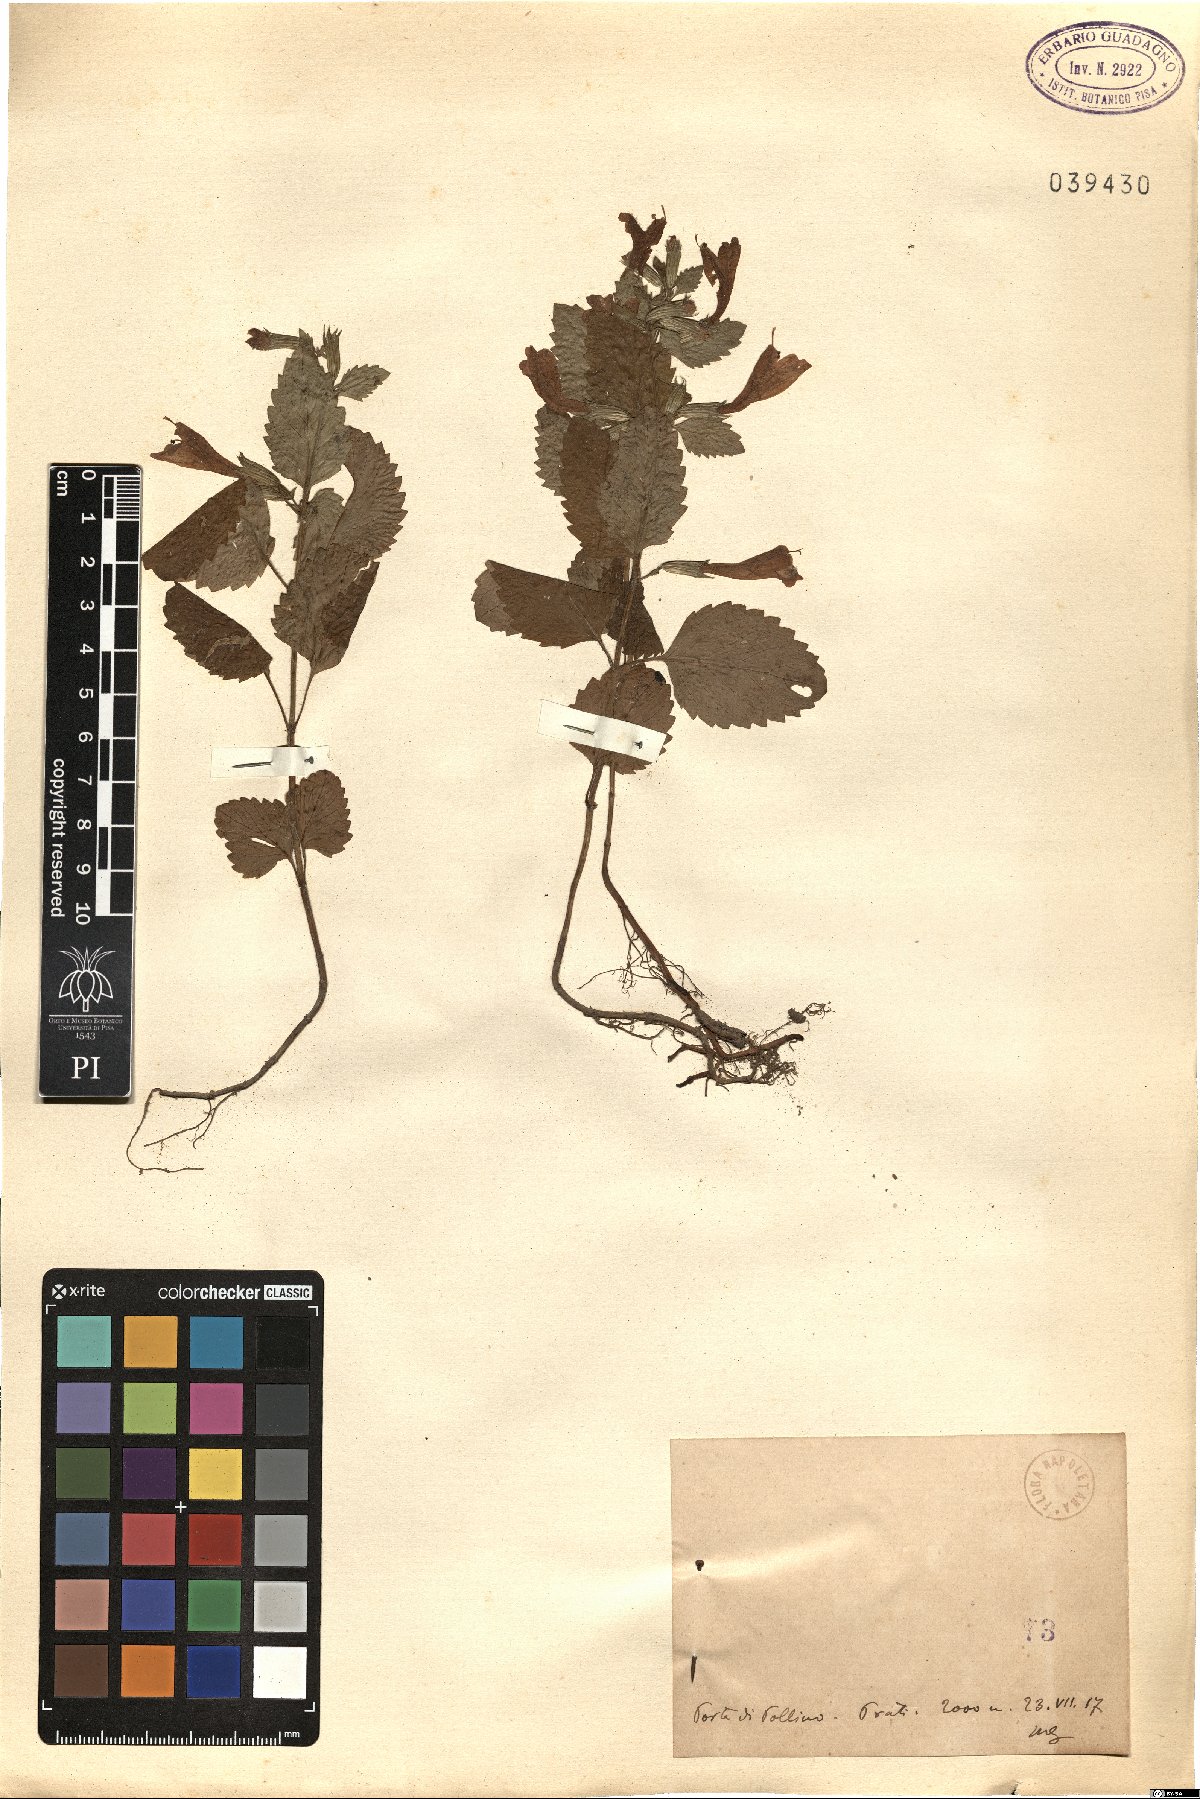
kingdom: Plantae
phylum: Tracheophyta
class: Magnoliopsida
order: Lamiales
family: Lamiaceae
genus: Calamintha
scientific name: Calamintha
